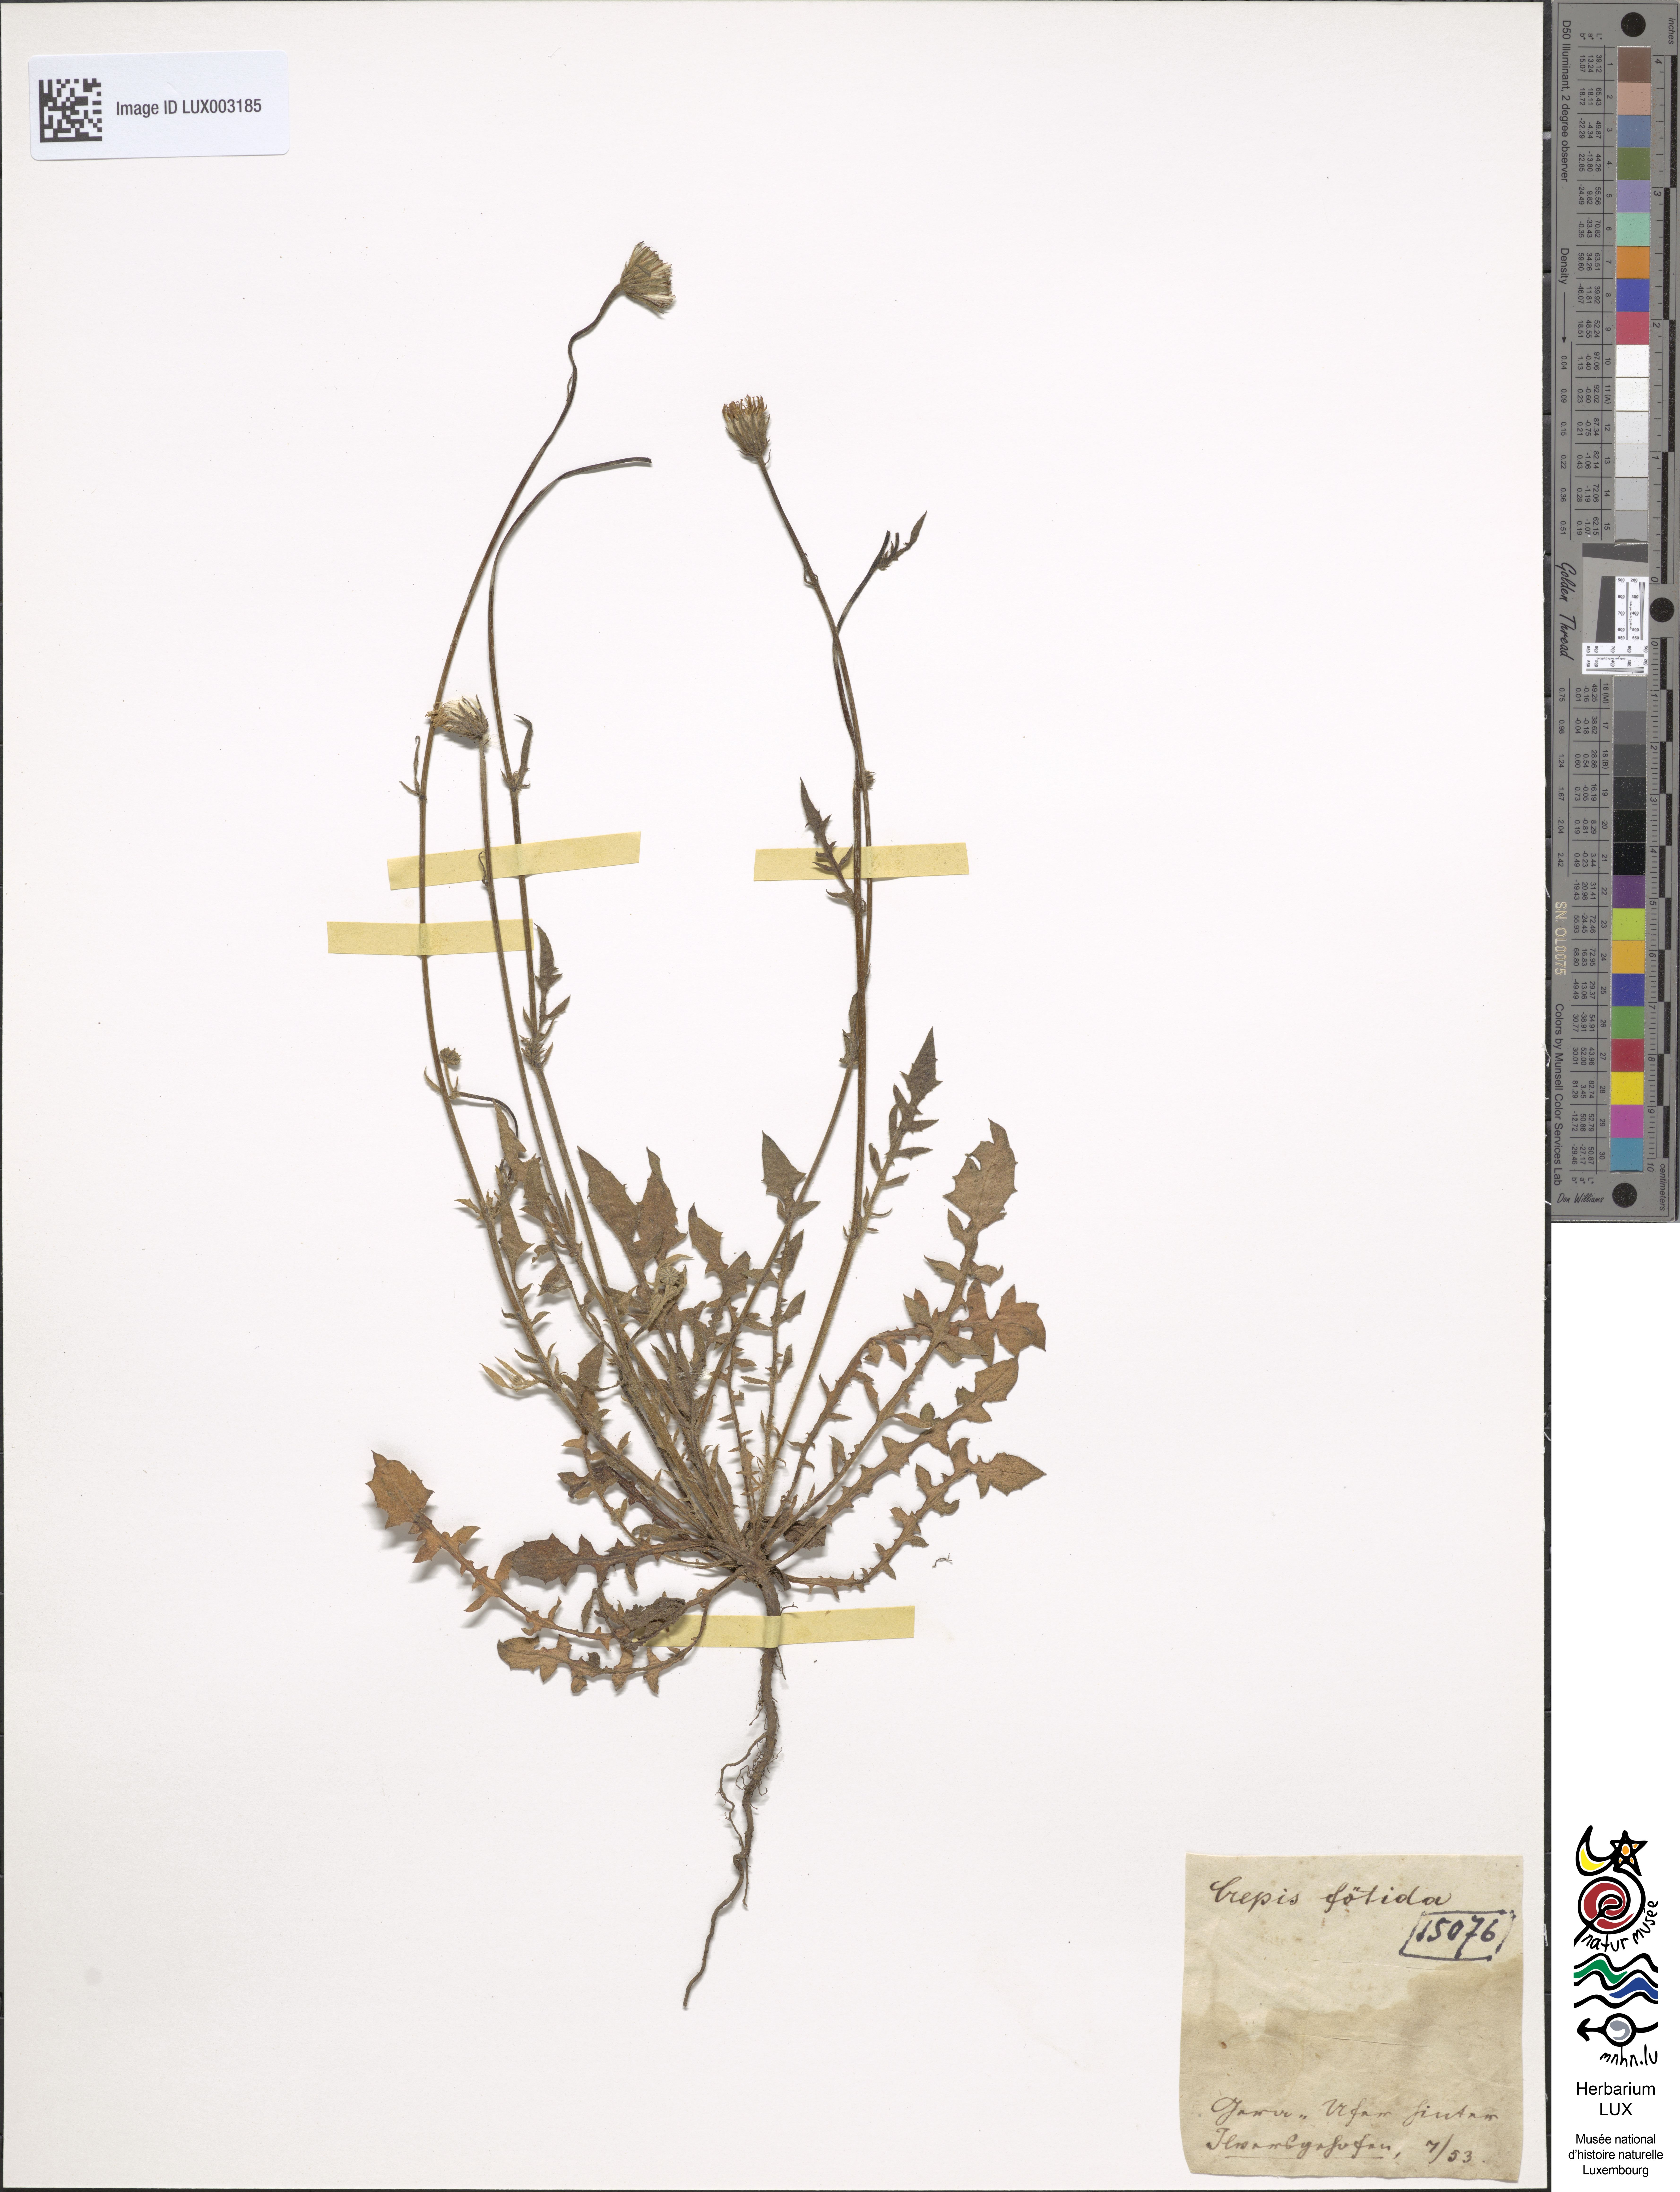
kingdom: Plantae
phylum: Tracheophyta
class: Magnoliopsida
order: Asterales
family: Asteraceae
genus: Crepis
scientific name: Crepis foetida
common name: Stinking hawk's-beard
